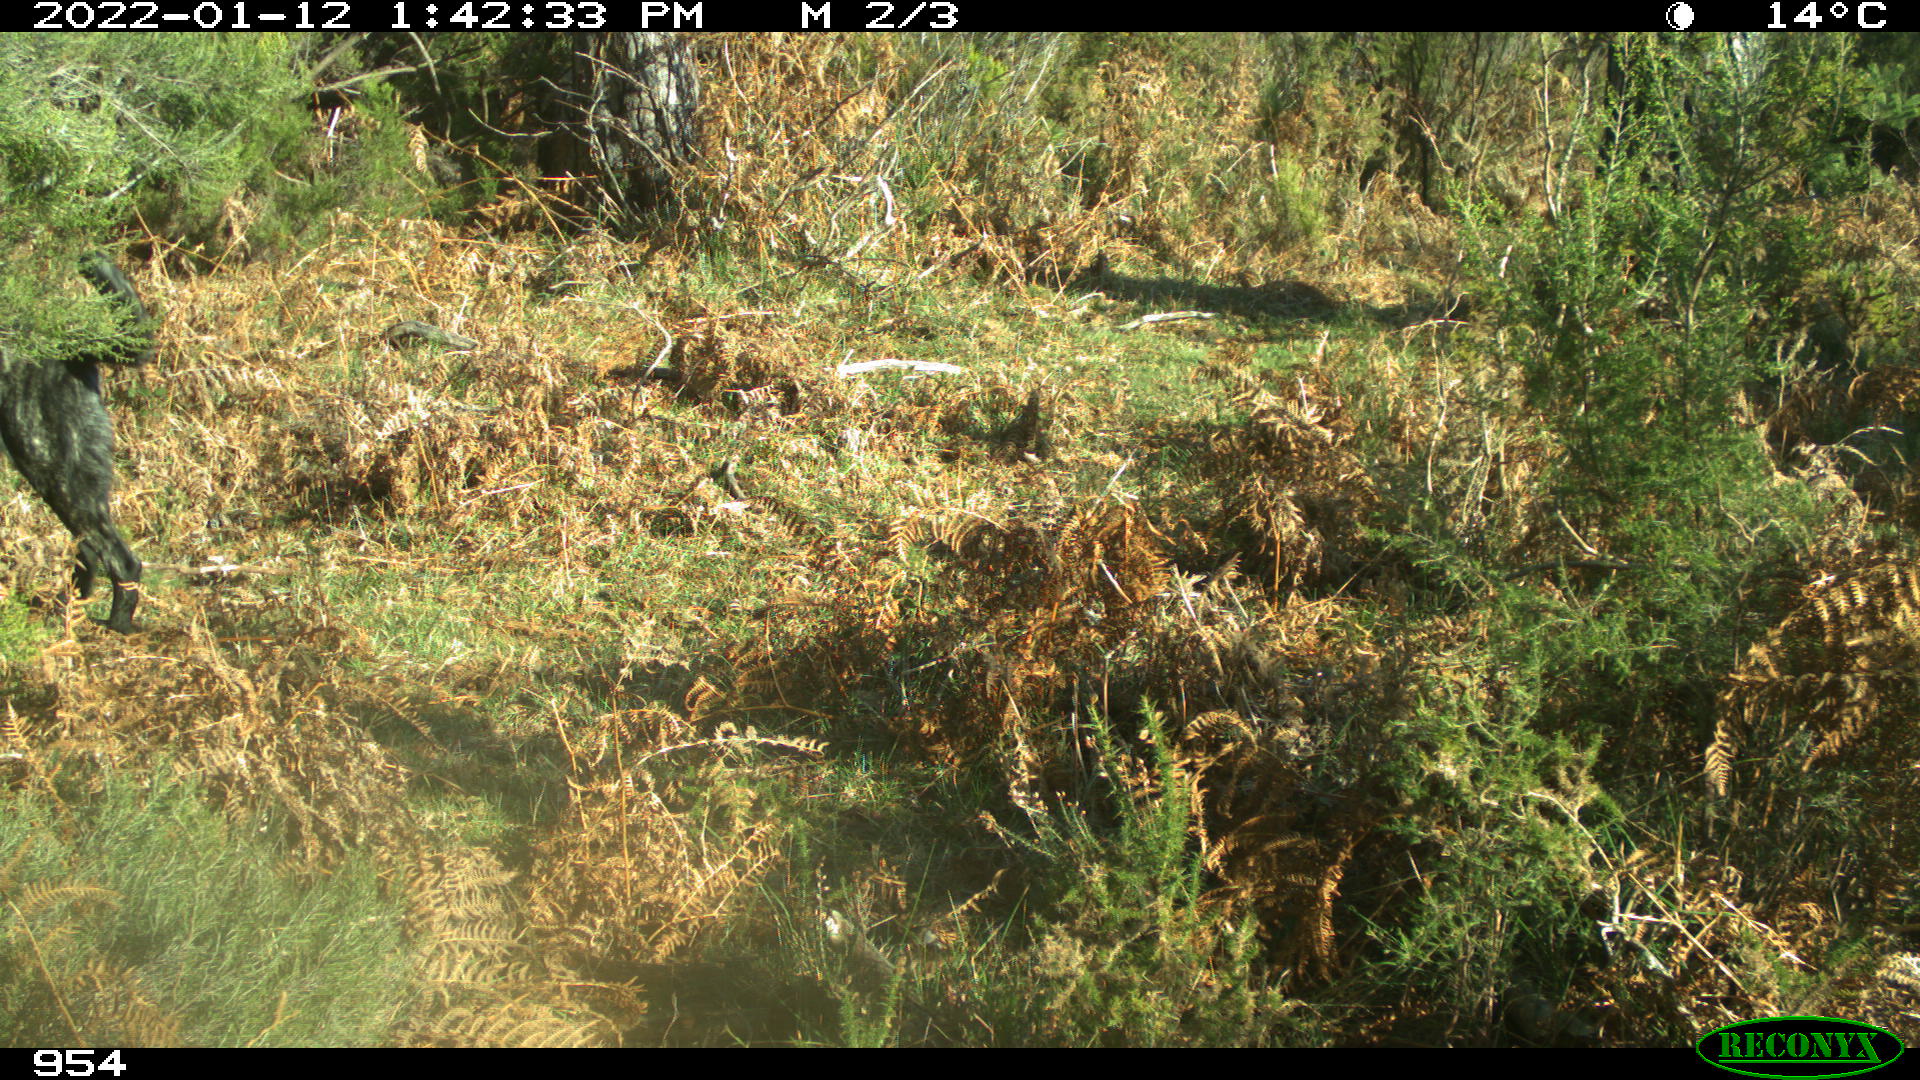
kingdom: Animalia
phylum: Chordata
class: Mammalia
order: Artiodactyla
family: Bovidae
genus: Bos
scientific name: Bos taurus
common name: Domesticated cattle
